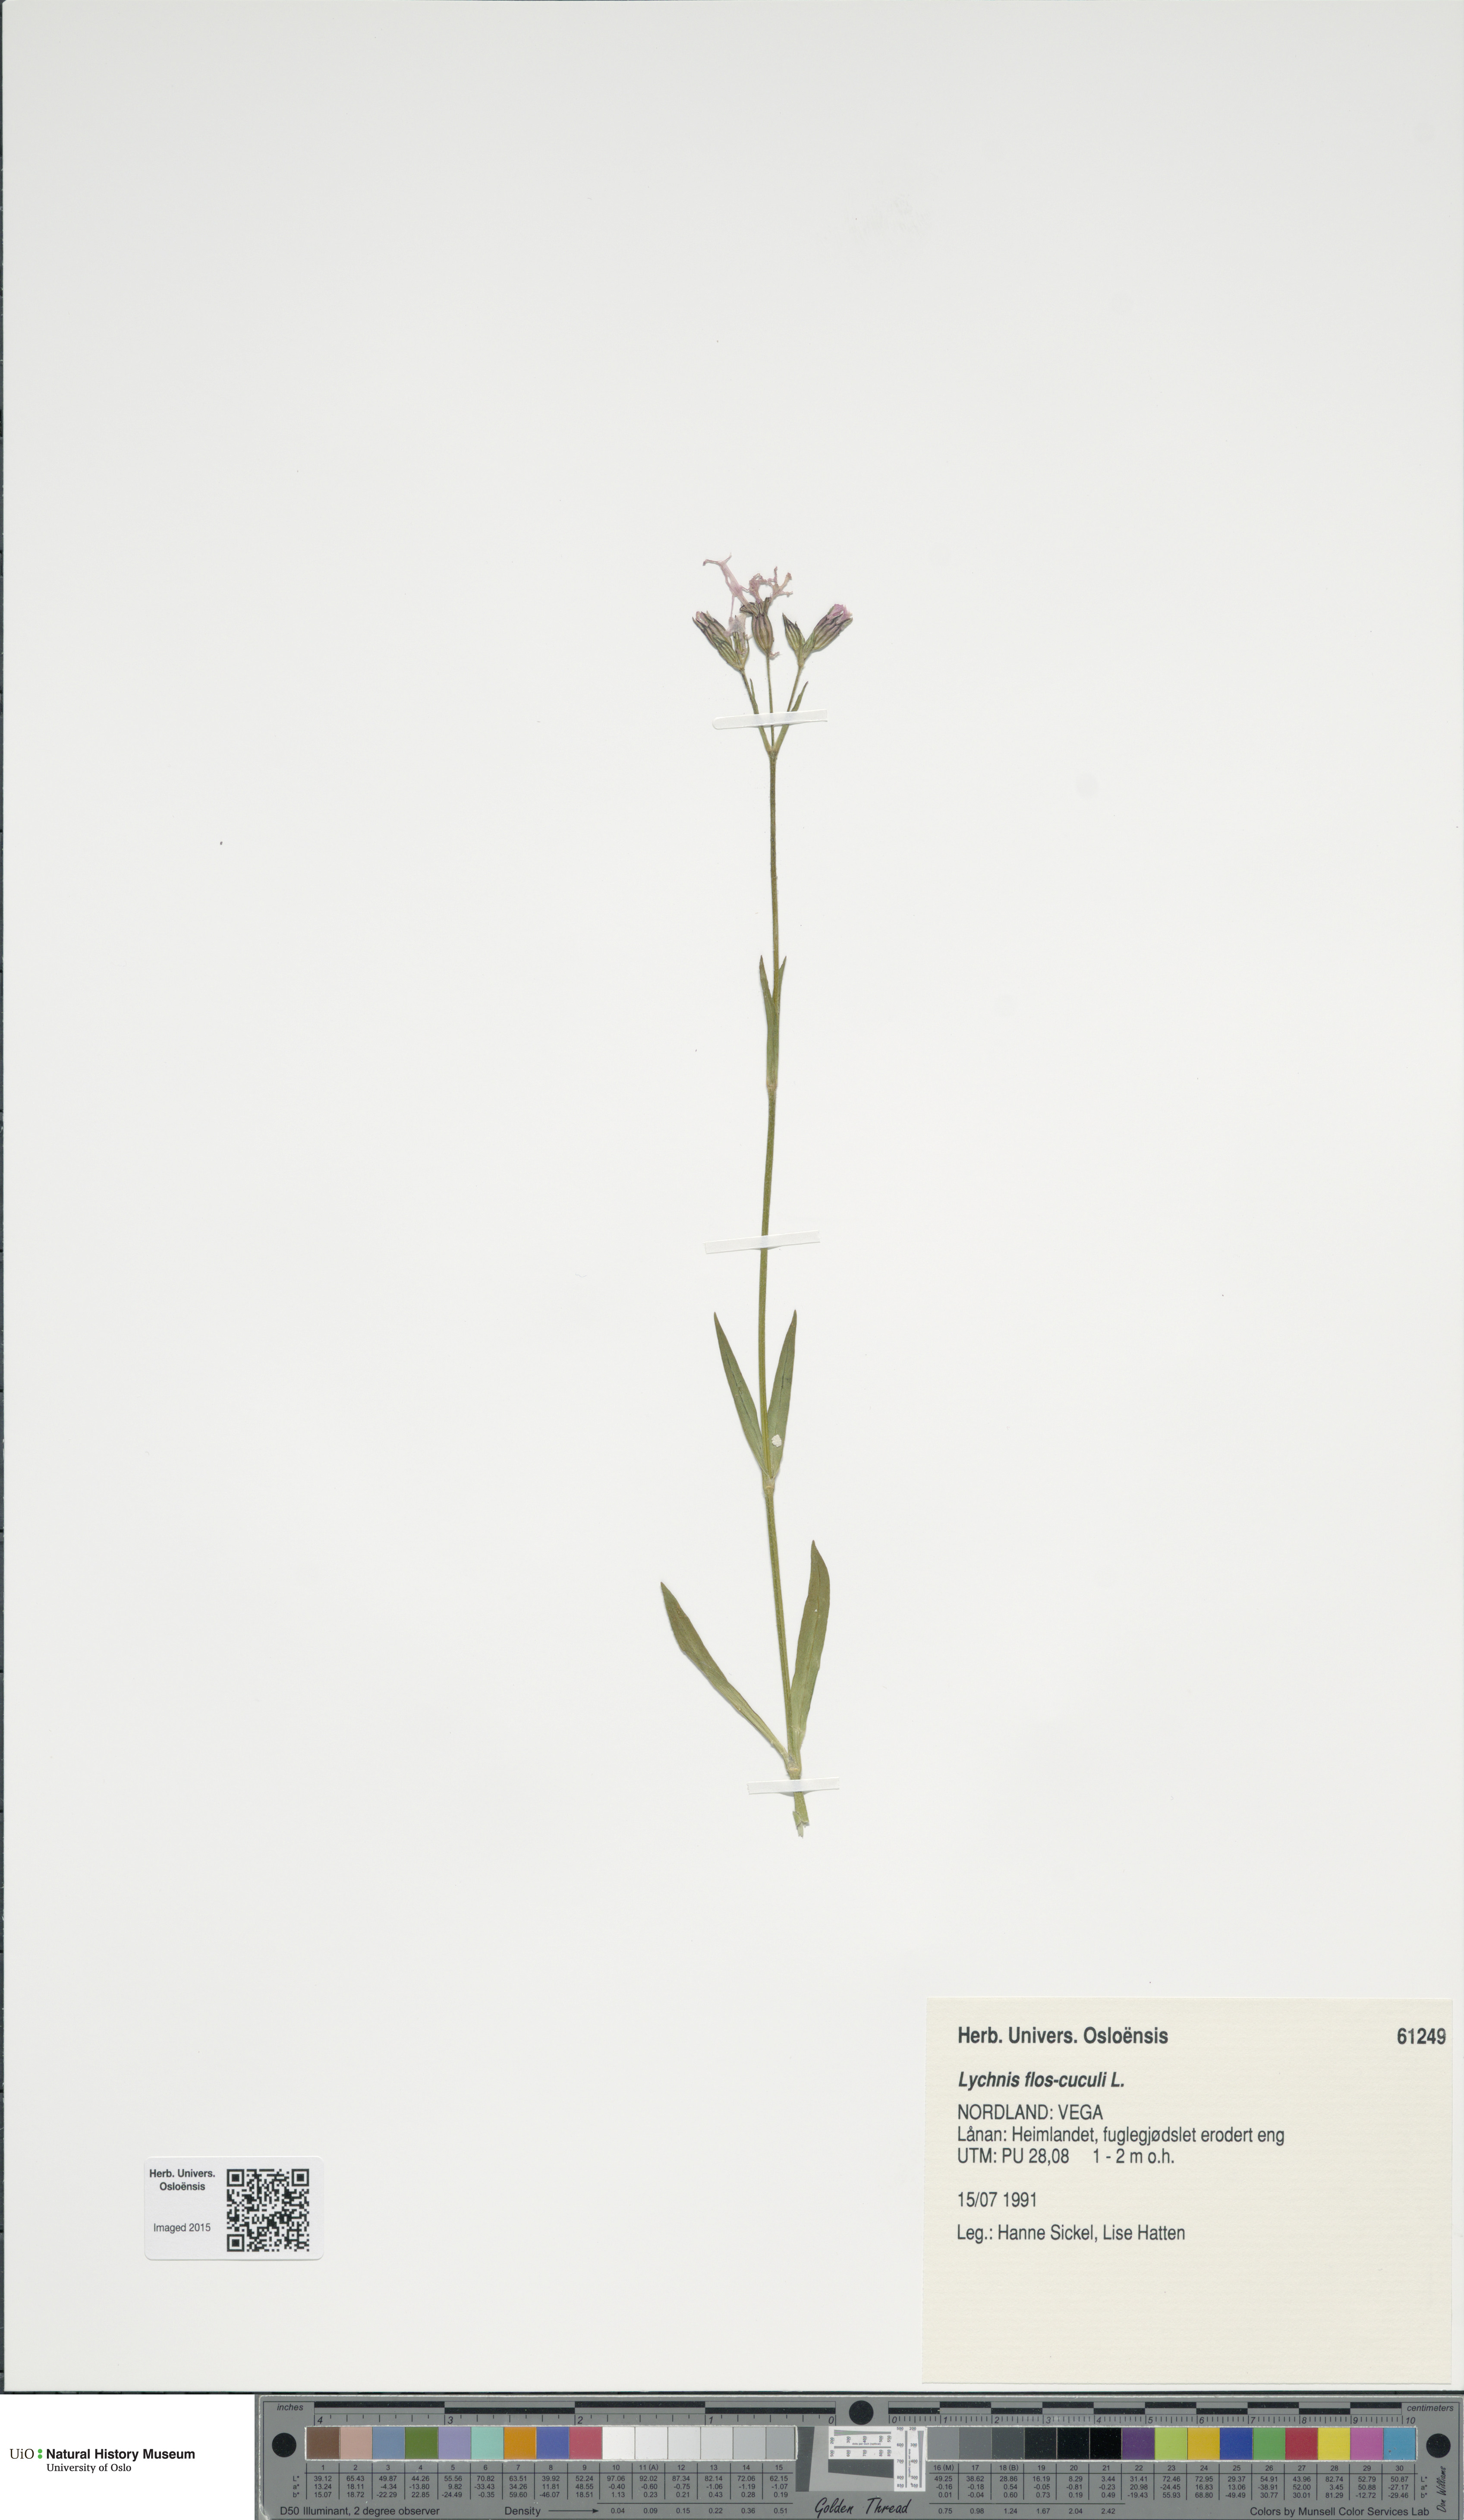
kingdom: Plantae
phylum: Tracheophyta
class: Magnoliopsida
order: Caryophyllales
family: Caryophyllaceae
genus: Silene
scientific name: Silene flos-cuculi
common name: Ragged-robin
